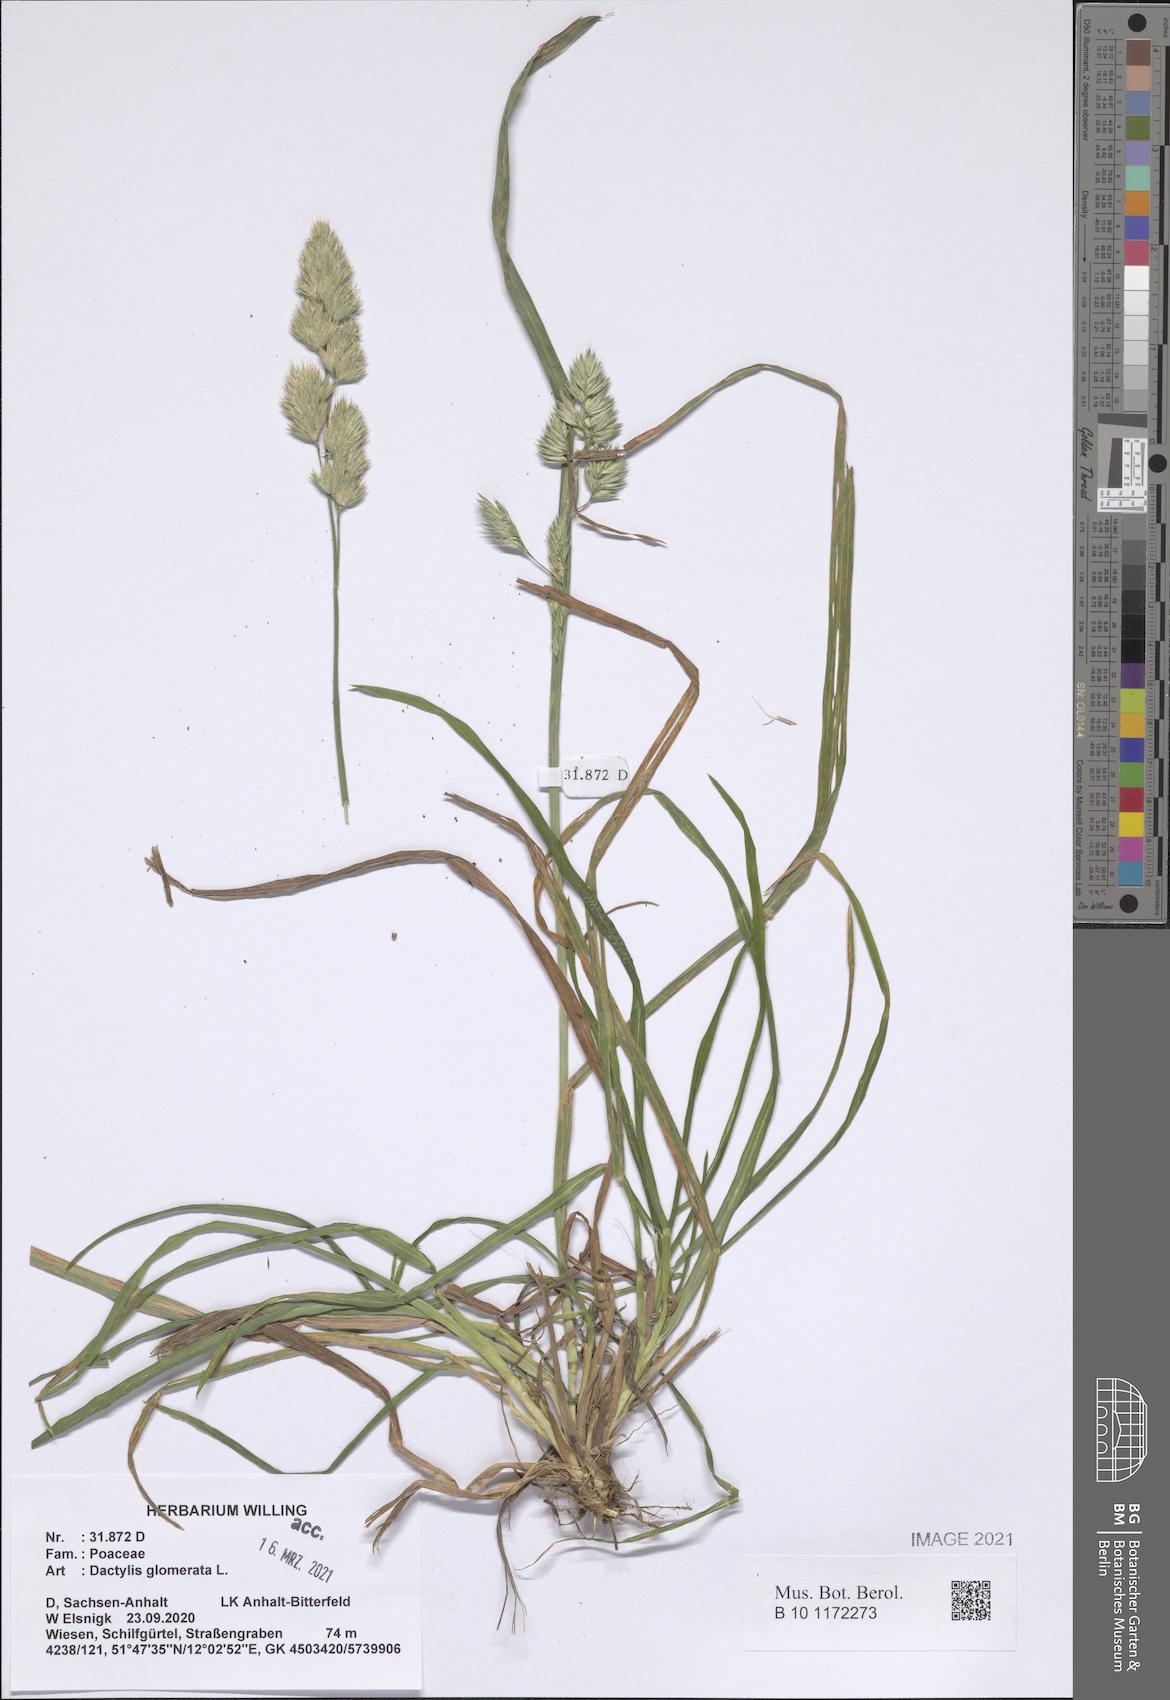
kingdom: Plantae
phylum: Tracheophyta
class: Liliopsida
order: Poales
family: Poaceae
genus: Dactylis
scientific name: Dactylis glomerata
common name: Orchardgrass
